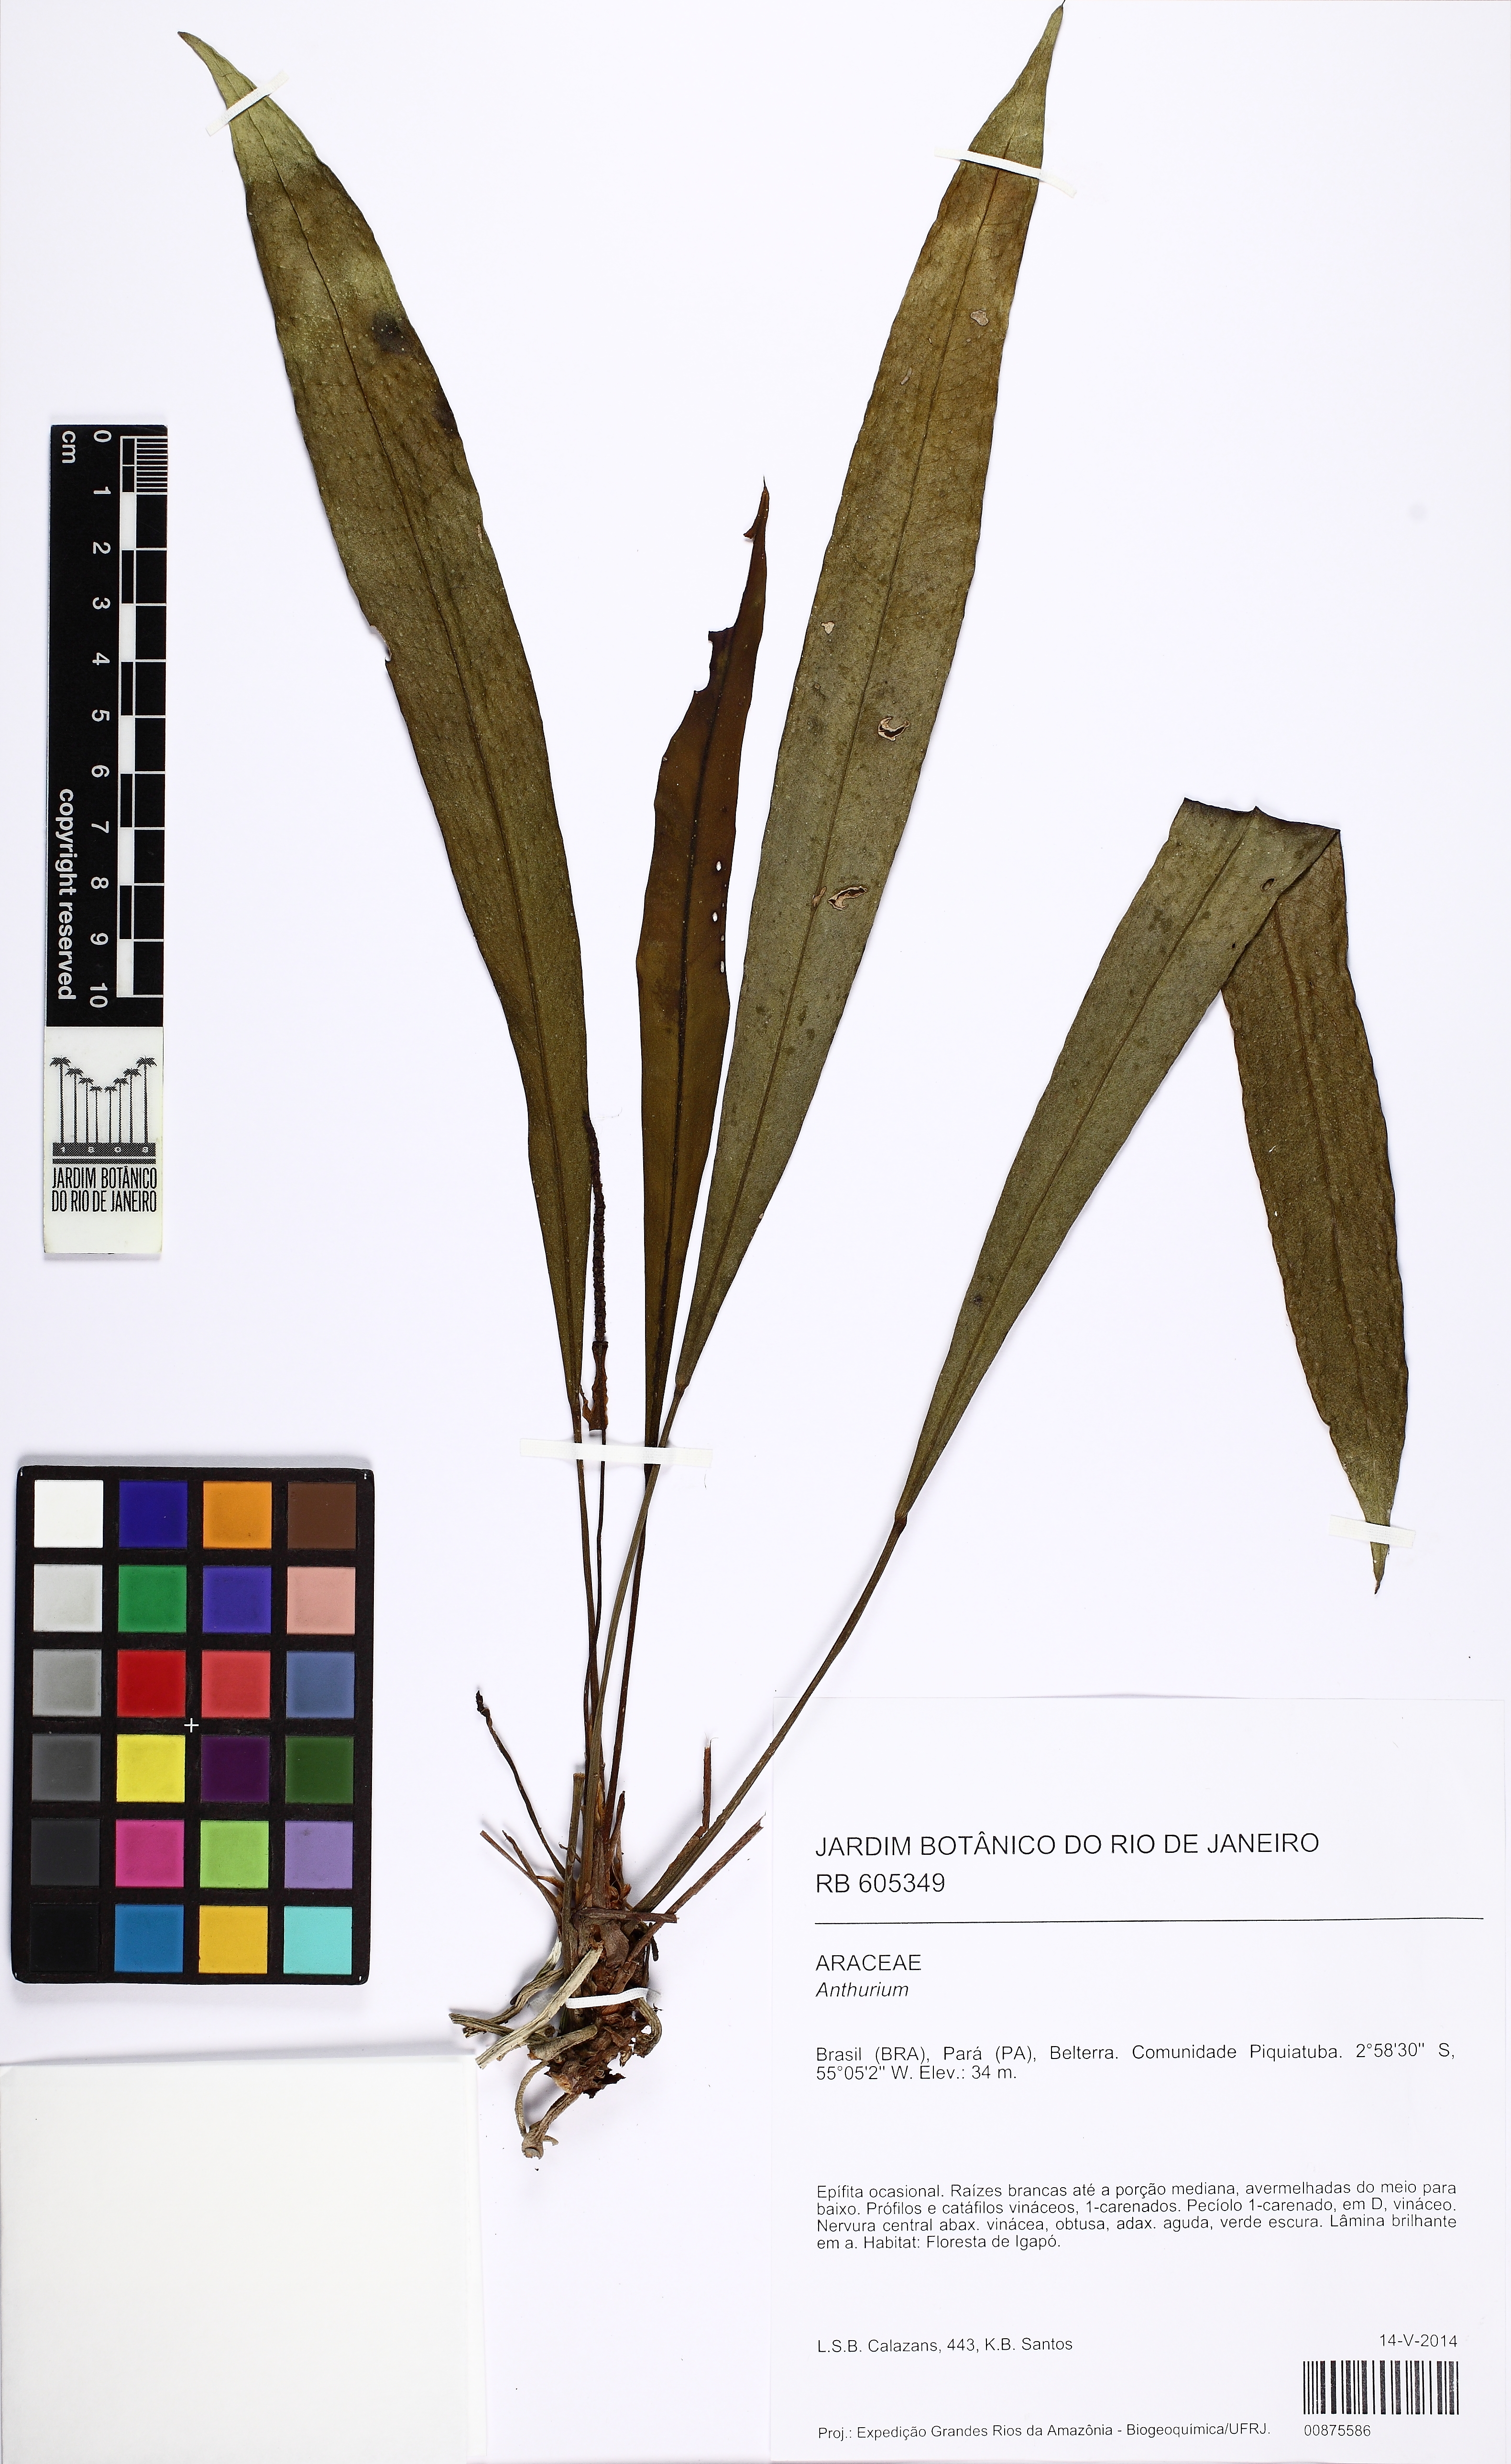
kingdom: Plantae
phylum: Tracheophyta
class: Liliopsida
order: Alismatales
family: Araceae
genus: Anthurium
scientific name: Anthurium gracile
